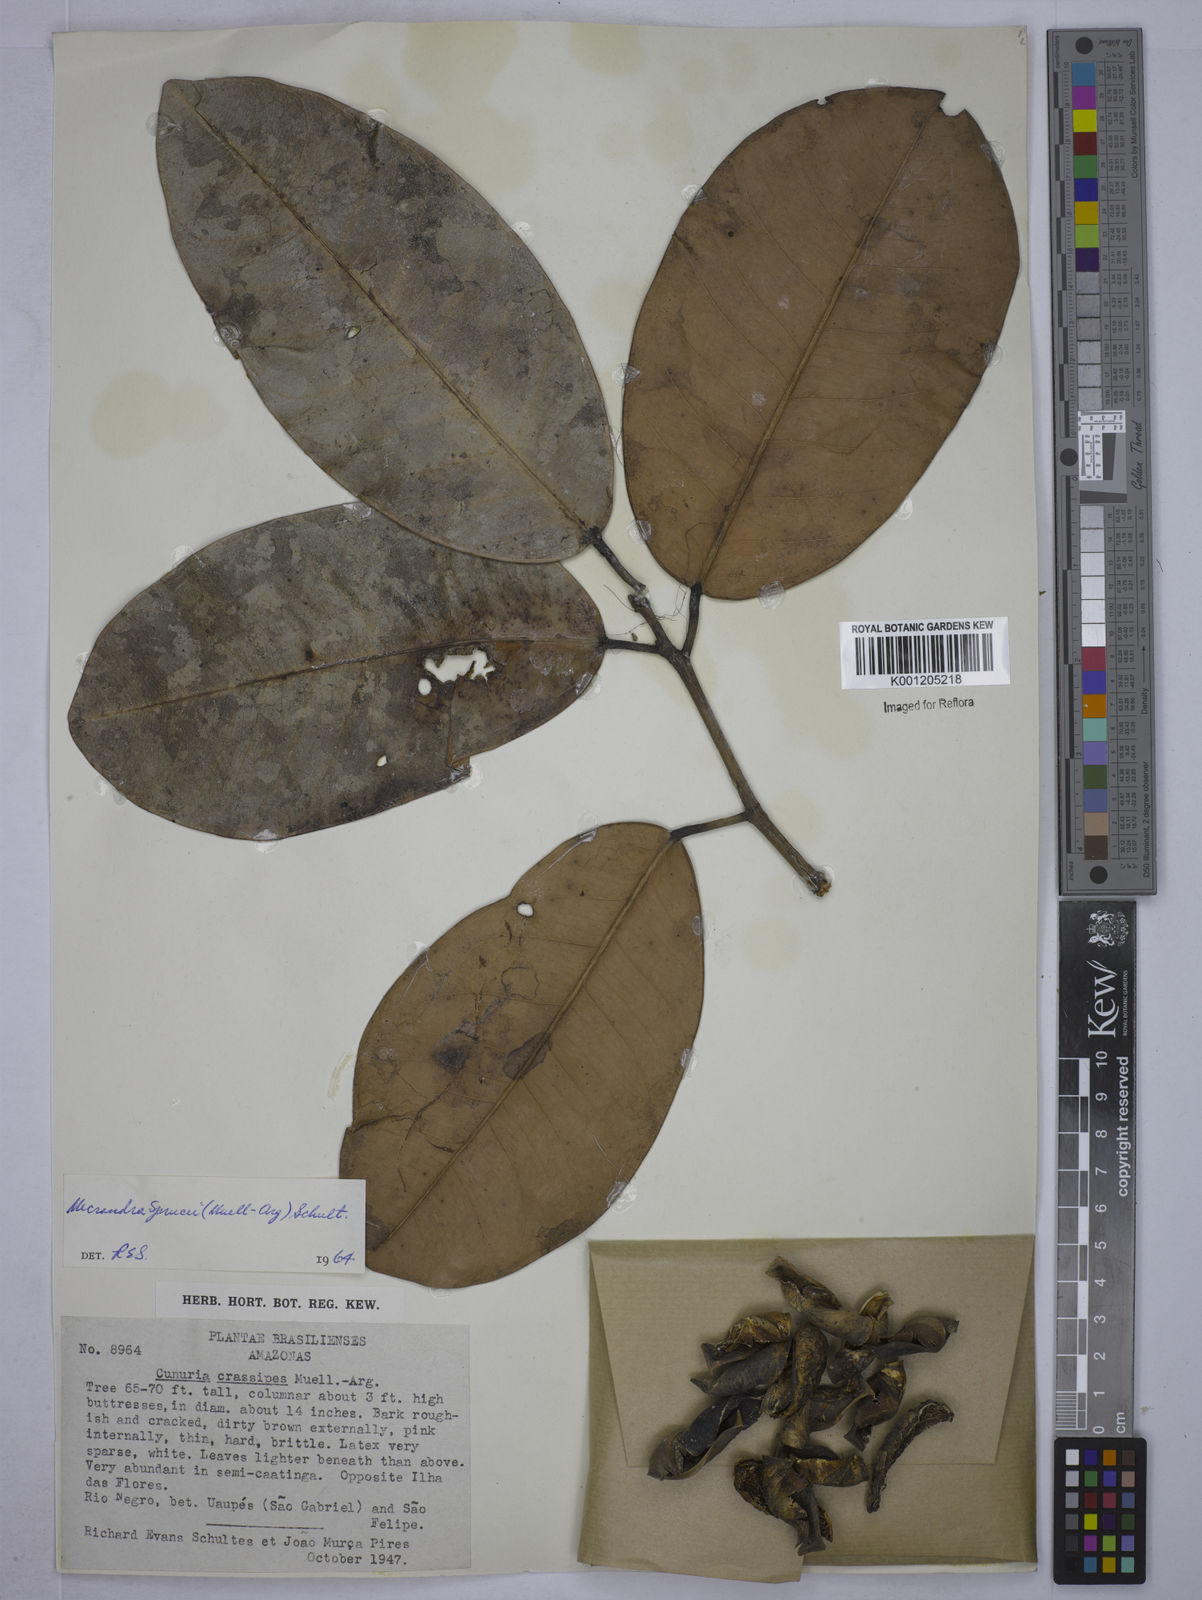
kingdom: Plantae
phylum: Tracheophyta
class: Magnoliopsida
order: Malpighiales
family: Euphorbiaceae
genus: Micrandra
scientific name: Micrandra
